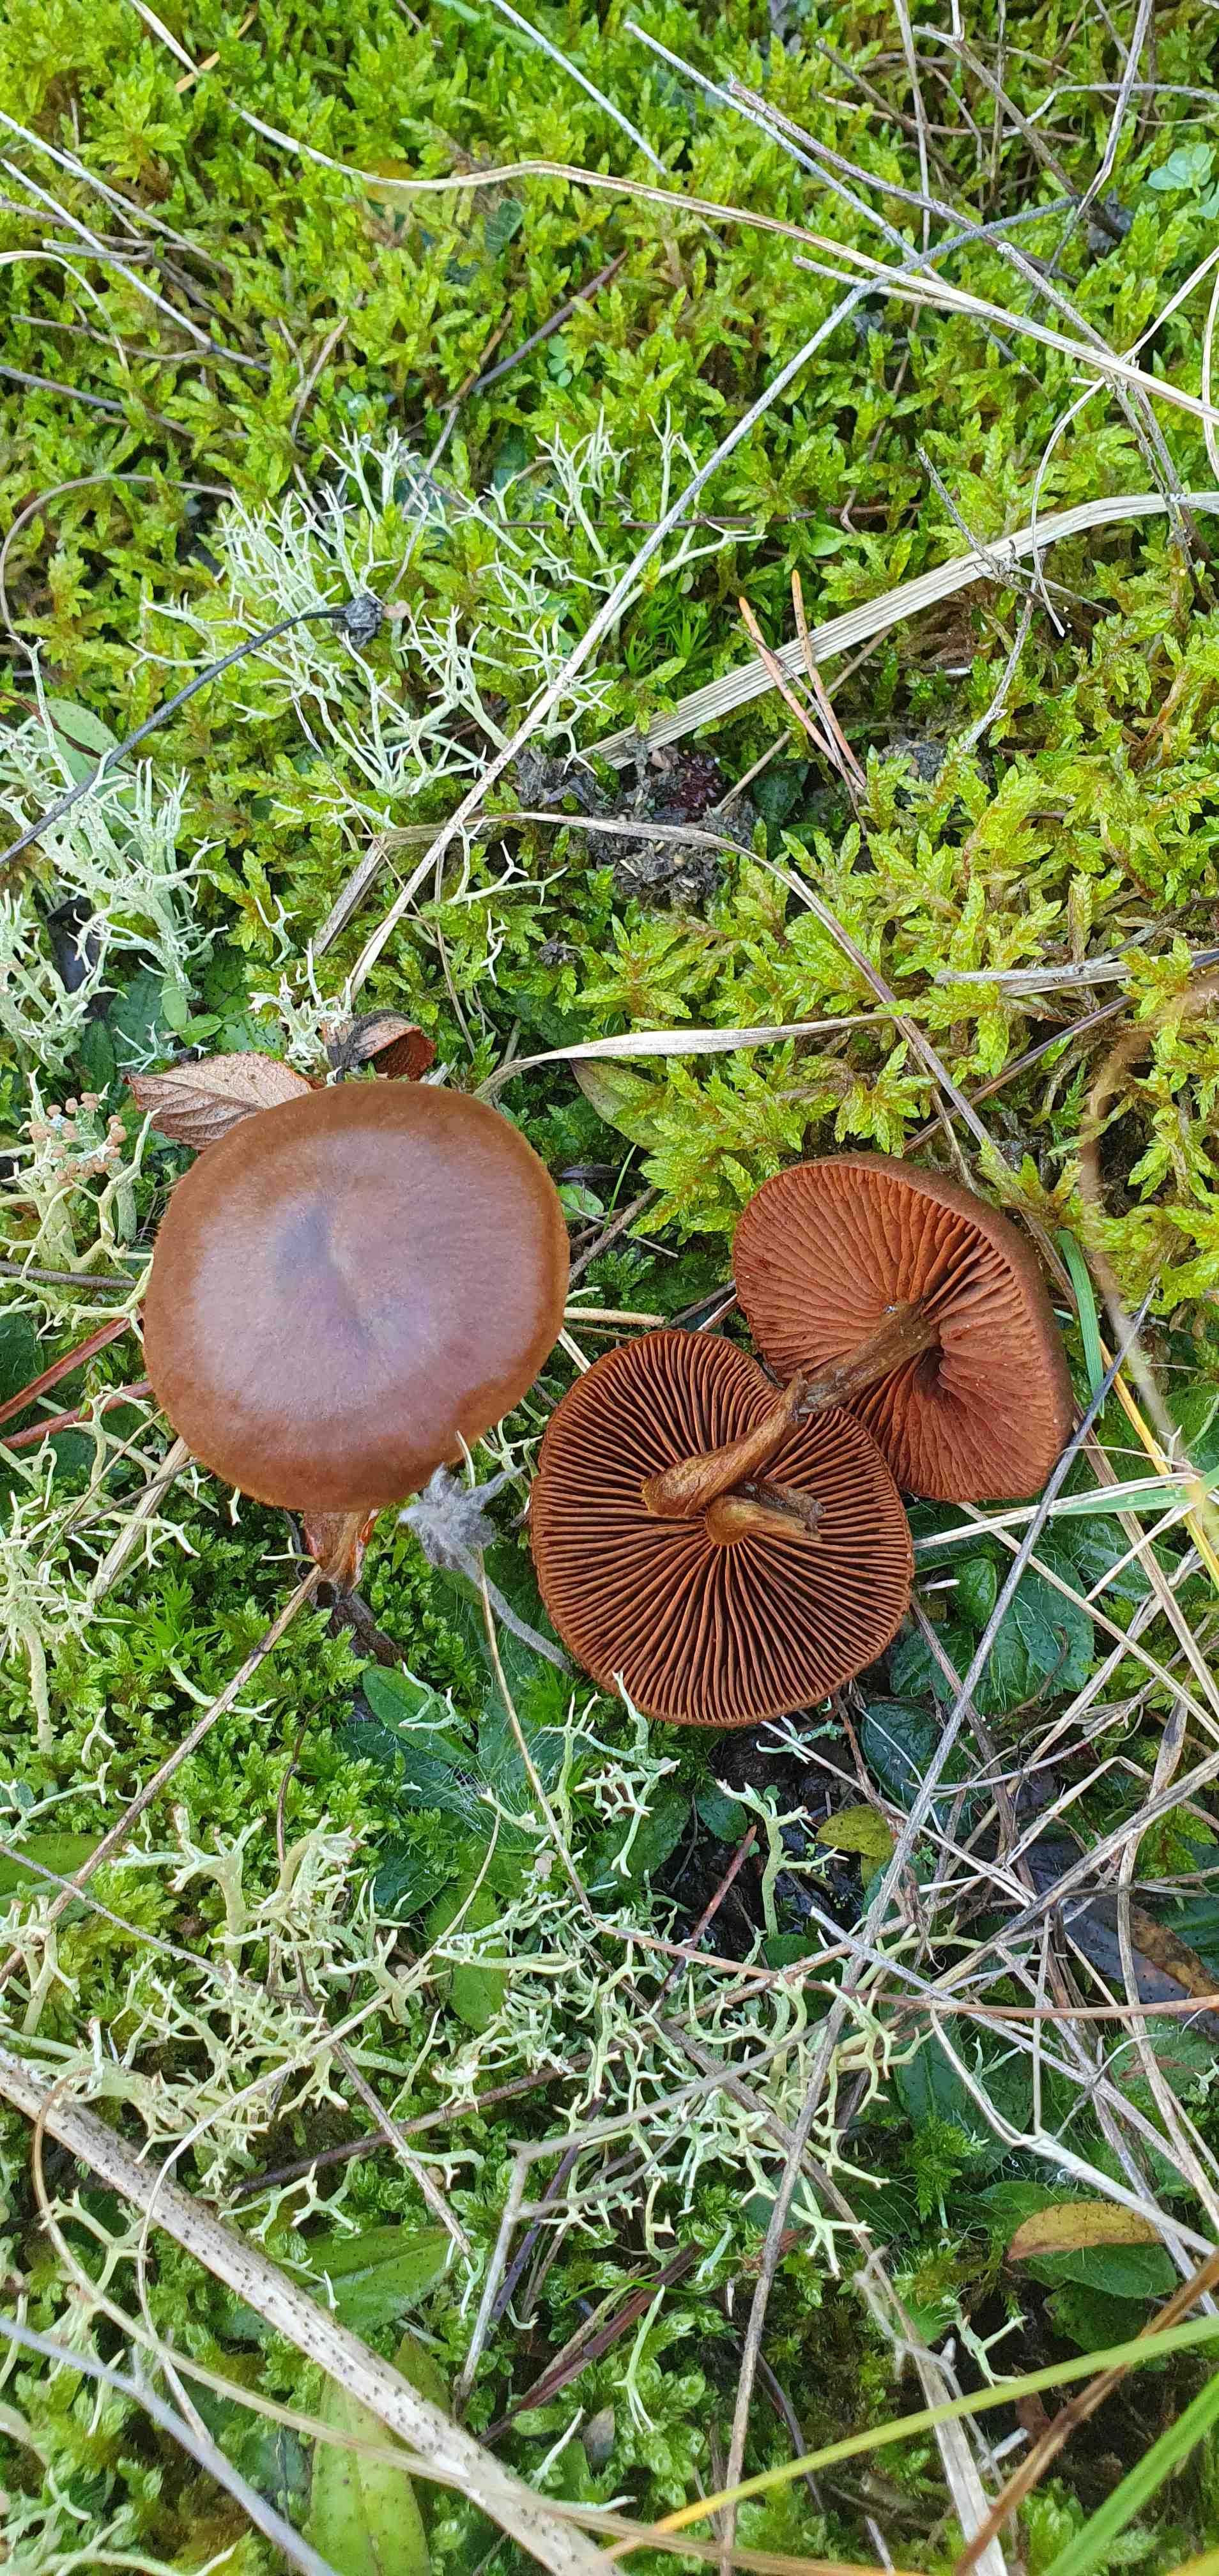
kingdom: Fungi
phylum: Basidiomycota
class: Agaricomycetes
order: Agaricales
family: Cortinariaceae
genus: Cortinarius
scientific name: Cortinarius
